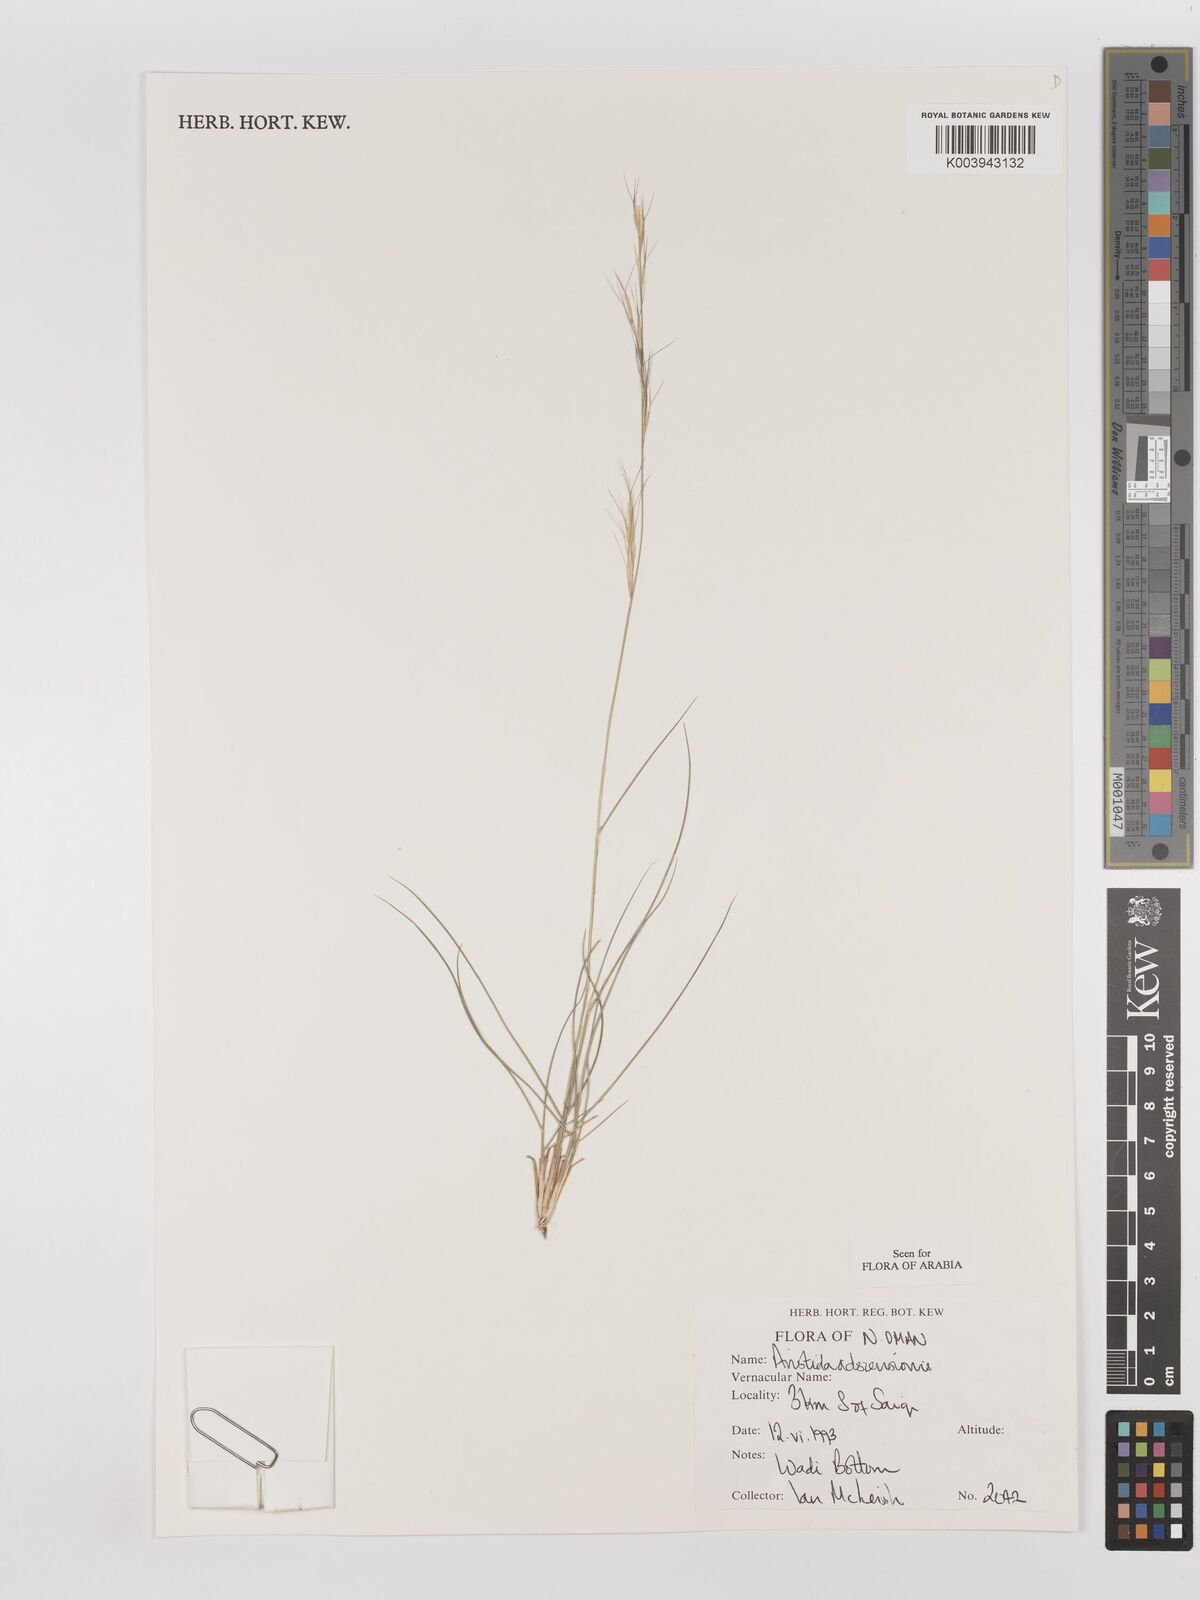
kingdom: Plantae
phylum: Tracheophyta
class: Liliopsida
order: Poales
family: Poaceae
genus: Aristida
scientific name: Aristida adscensionis
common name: Sixweeks threeawn
